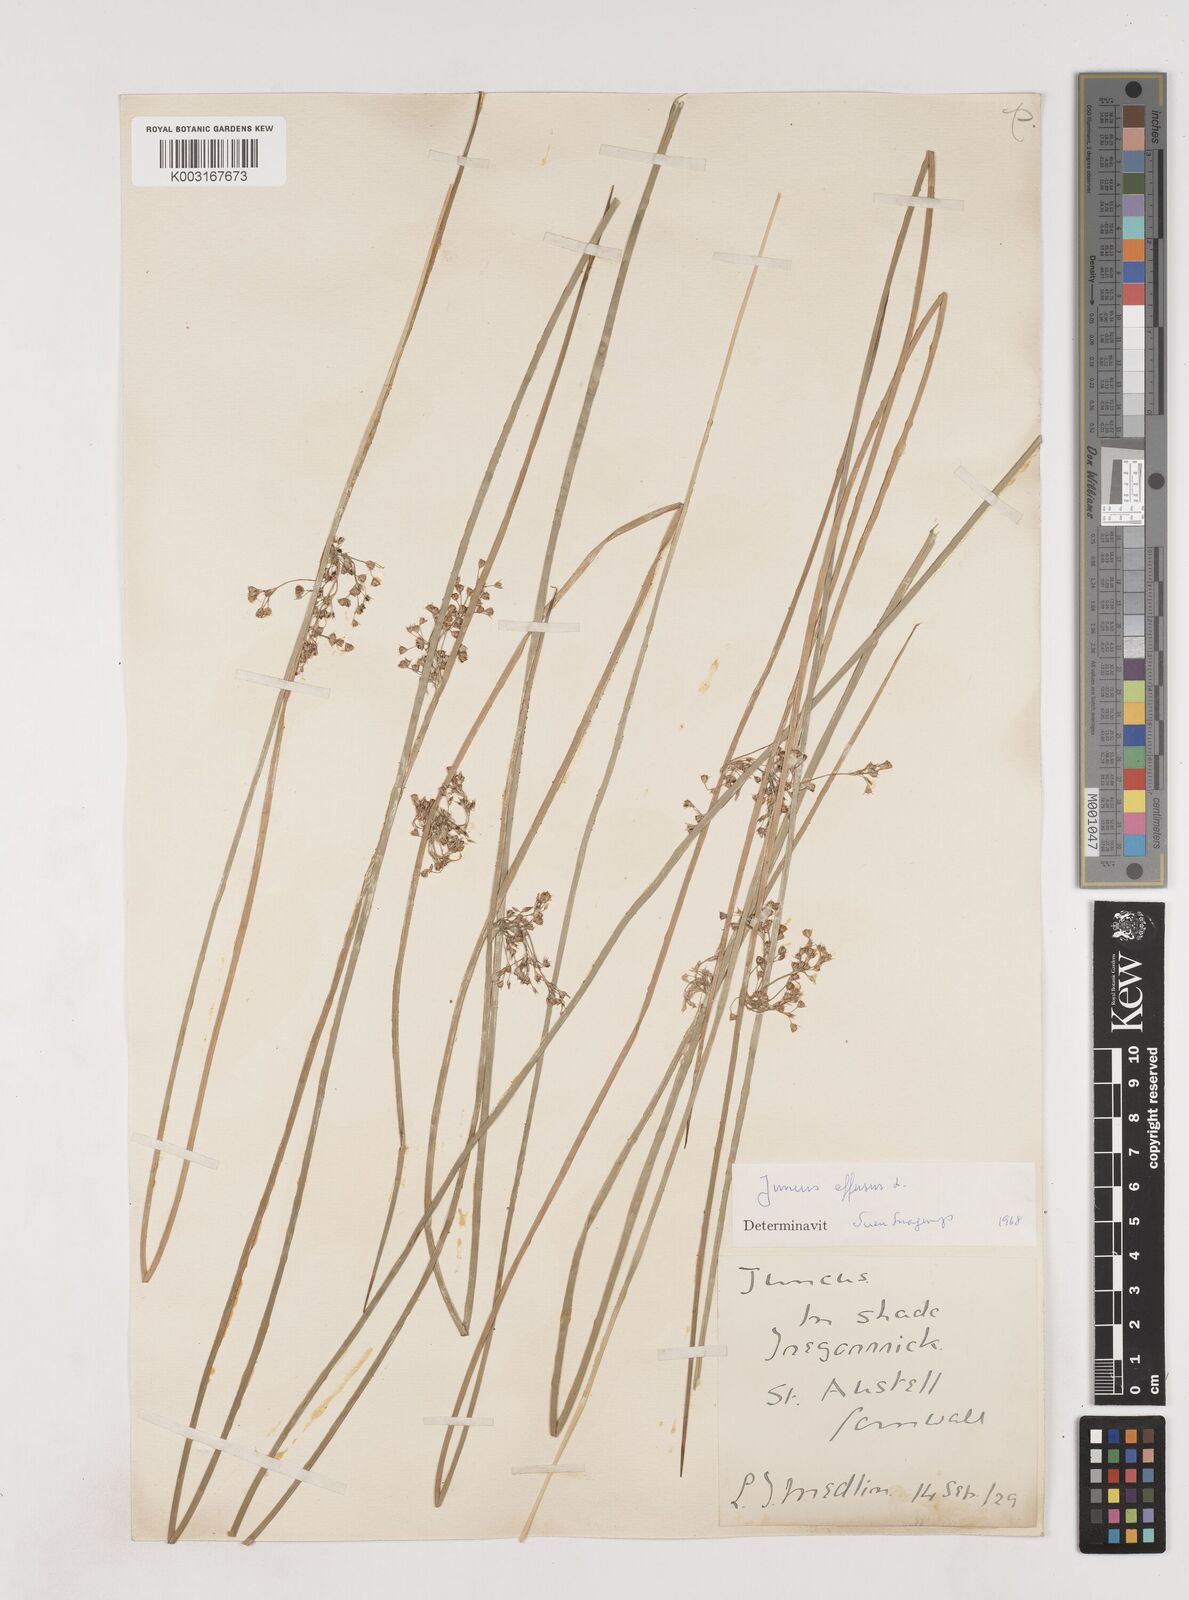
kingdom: Plantae
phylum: Tracheophyta
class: Liliopsida
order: Poales
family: Juncaceae
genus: Juncus
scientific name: Juncus effusus
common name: Soft rush
